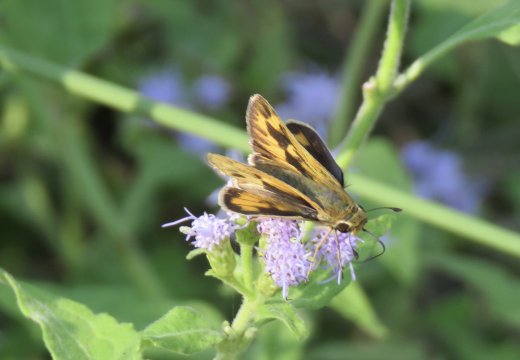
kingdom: Animalia
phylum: Arthropoda
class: Insecta
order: Lepidoptera
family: Hesperiidae
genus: Hylephila
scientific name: Hylephila phyleus
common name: Fiery Skipper
